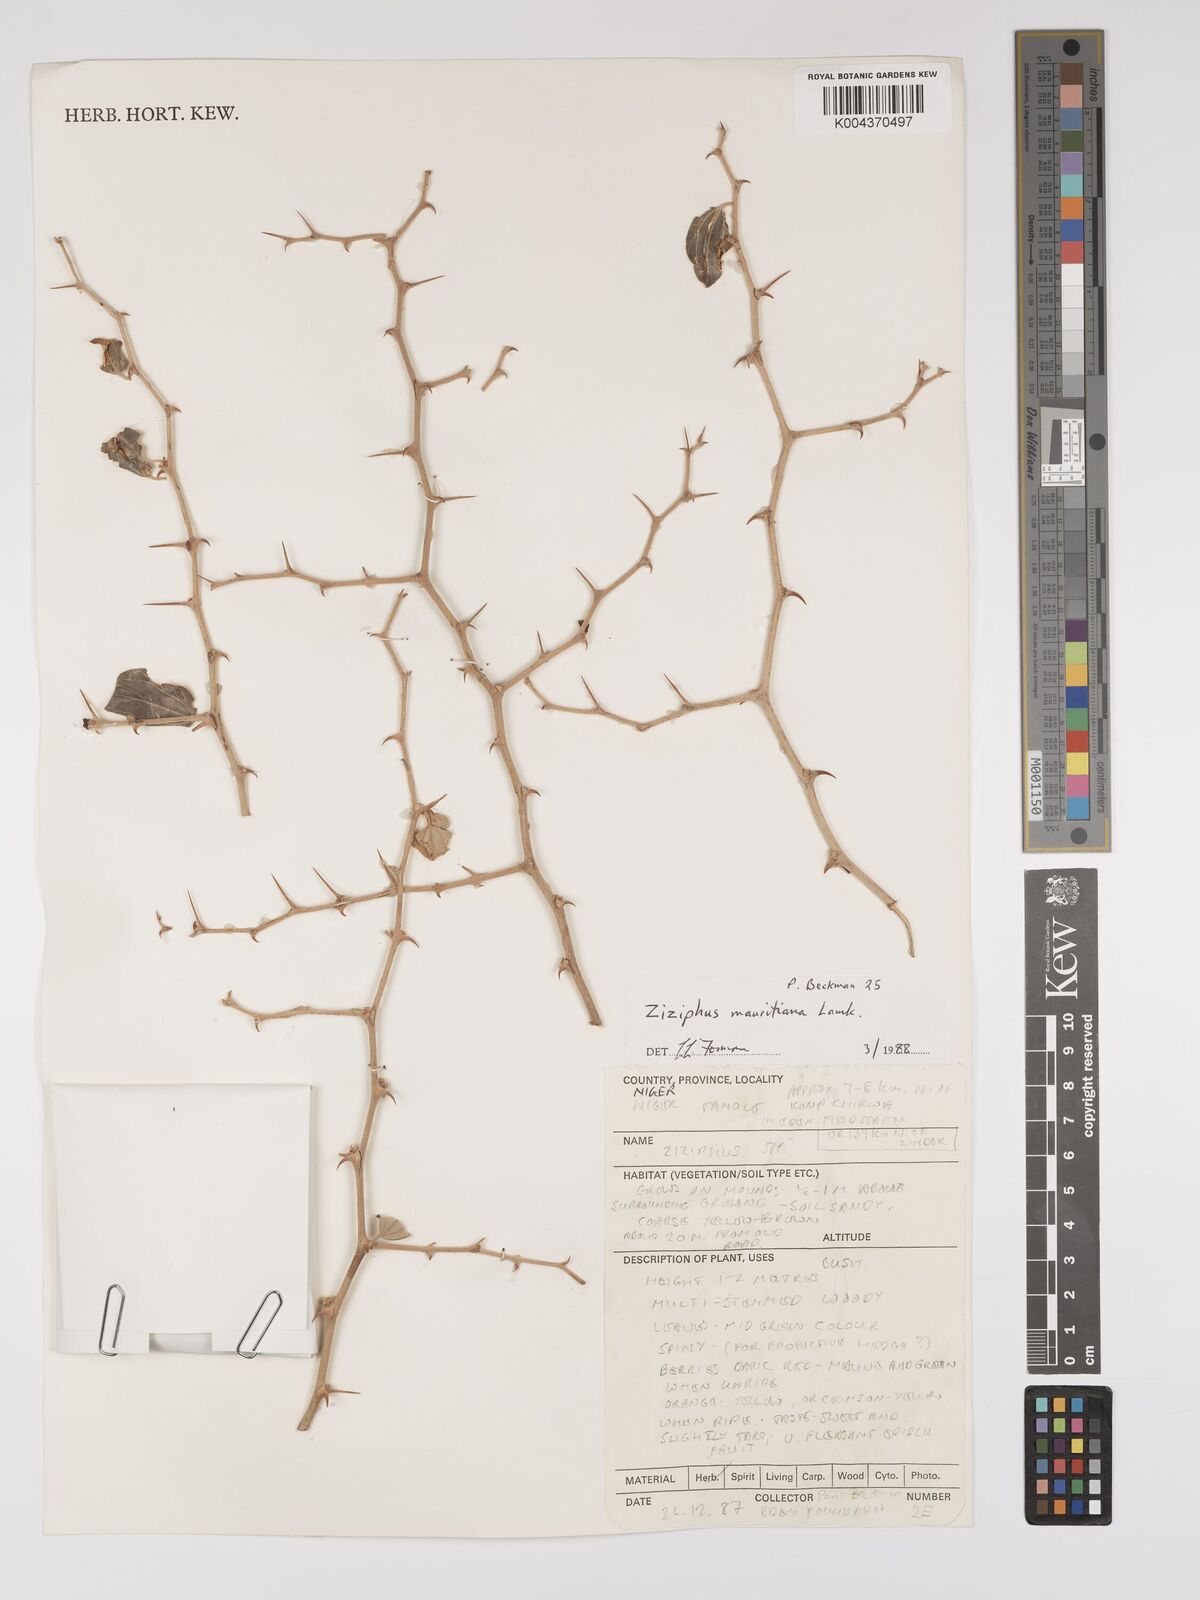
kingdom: Plantae
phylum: Tracheophyta
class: Magnoliopsida
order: Rosales
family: Rhamnaceae
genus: Ziziphus
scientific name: Ziziphus mauritiana
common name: Indian jujube
